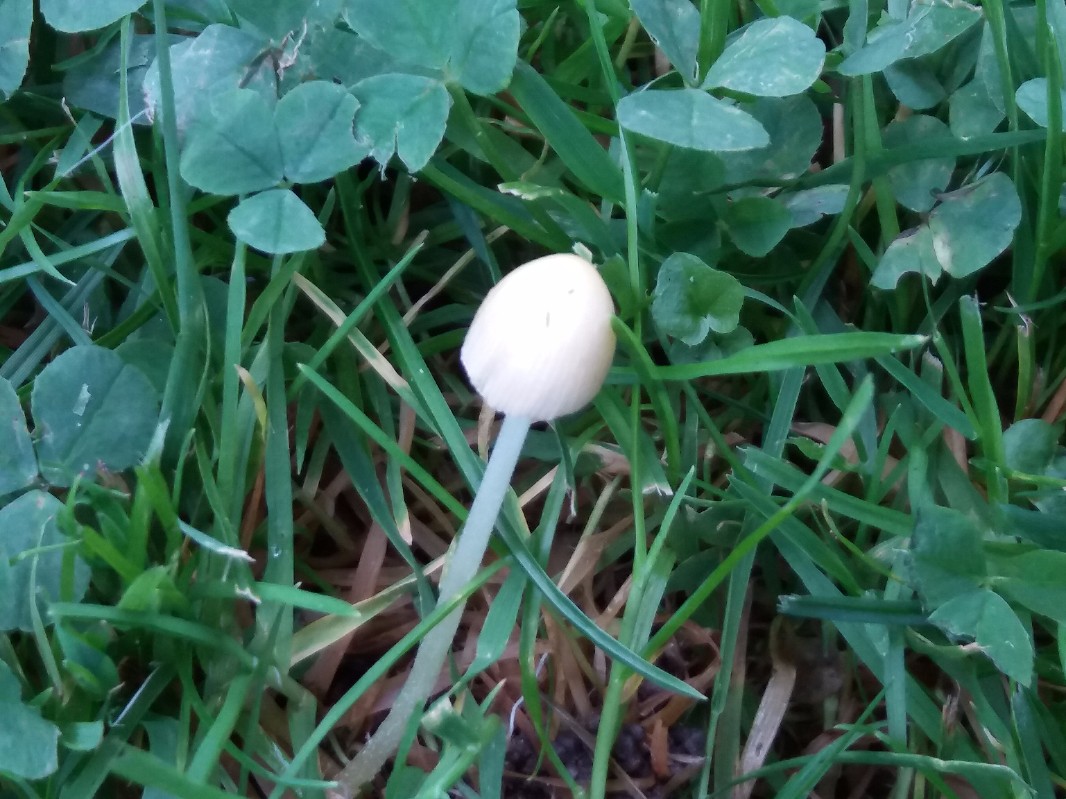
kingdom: Fungi
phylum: Basidiomycota
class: Agaricomycetes
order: Agaricales
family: Bolbitiaceae
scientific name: Bolbitiaceae
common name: gulhatfamilien
